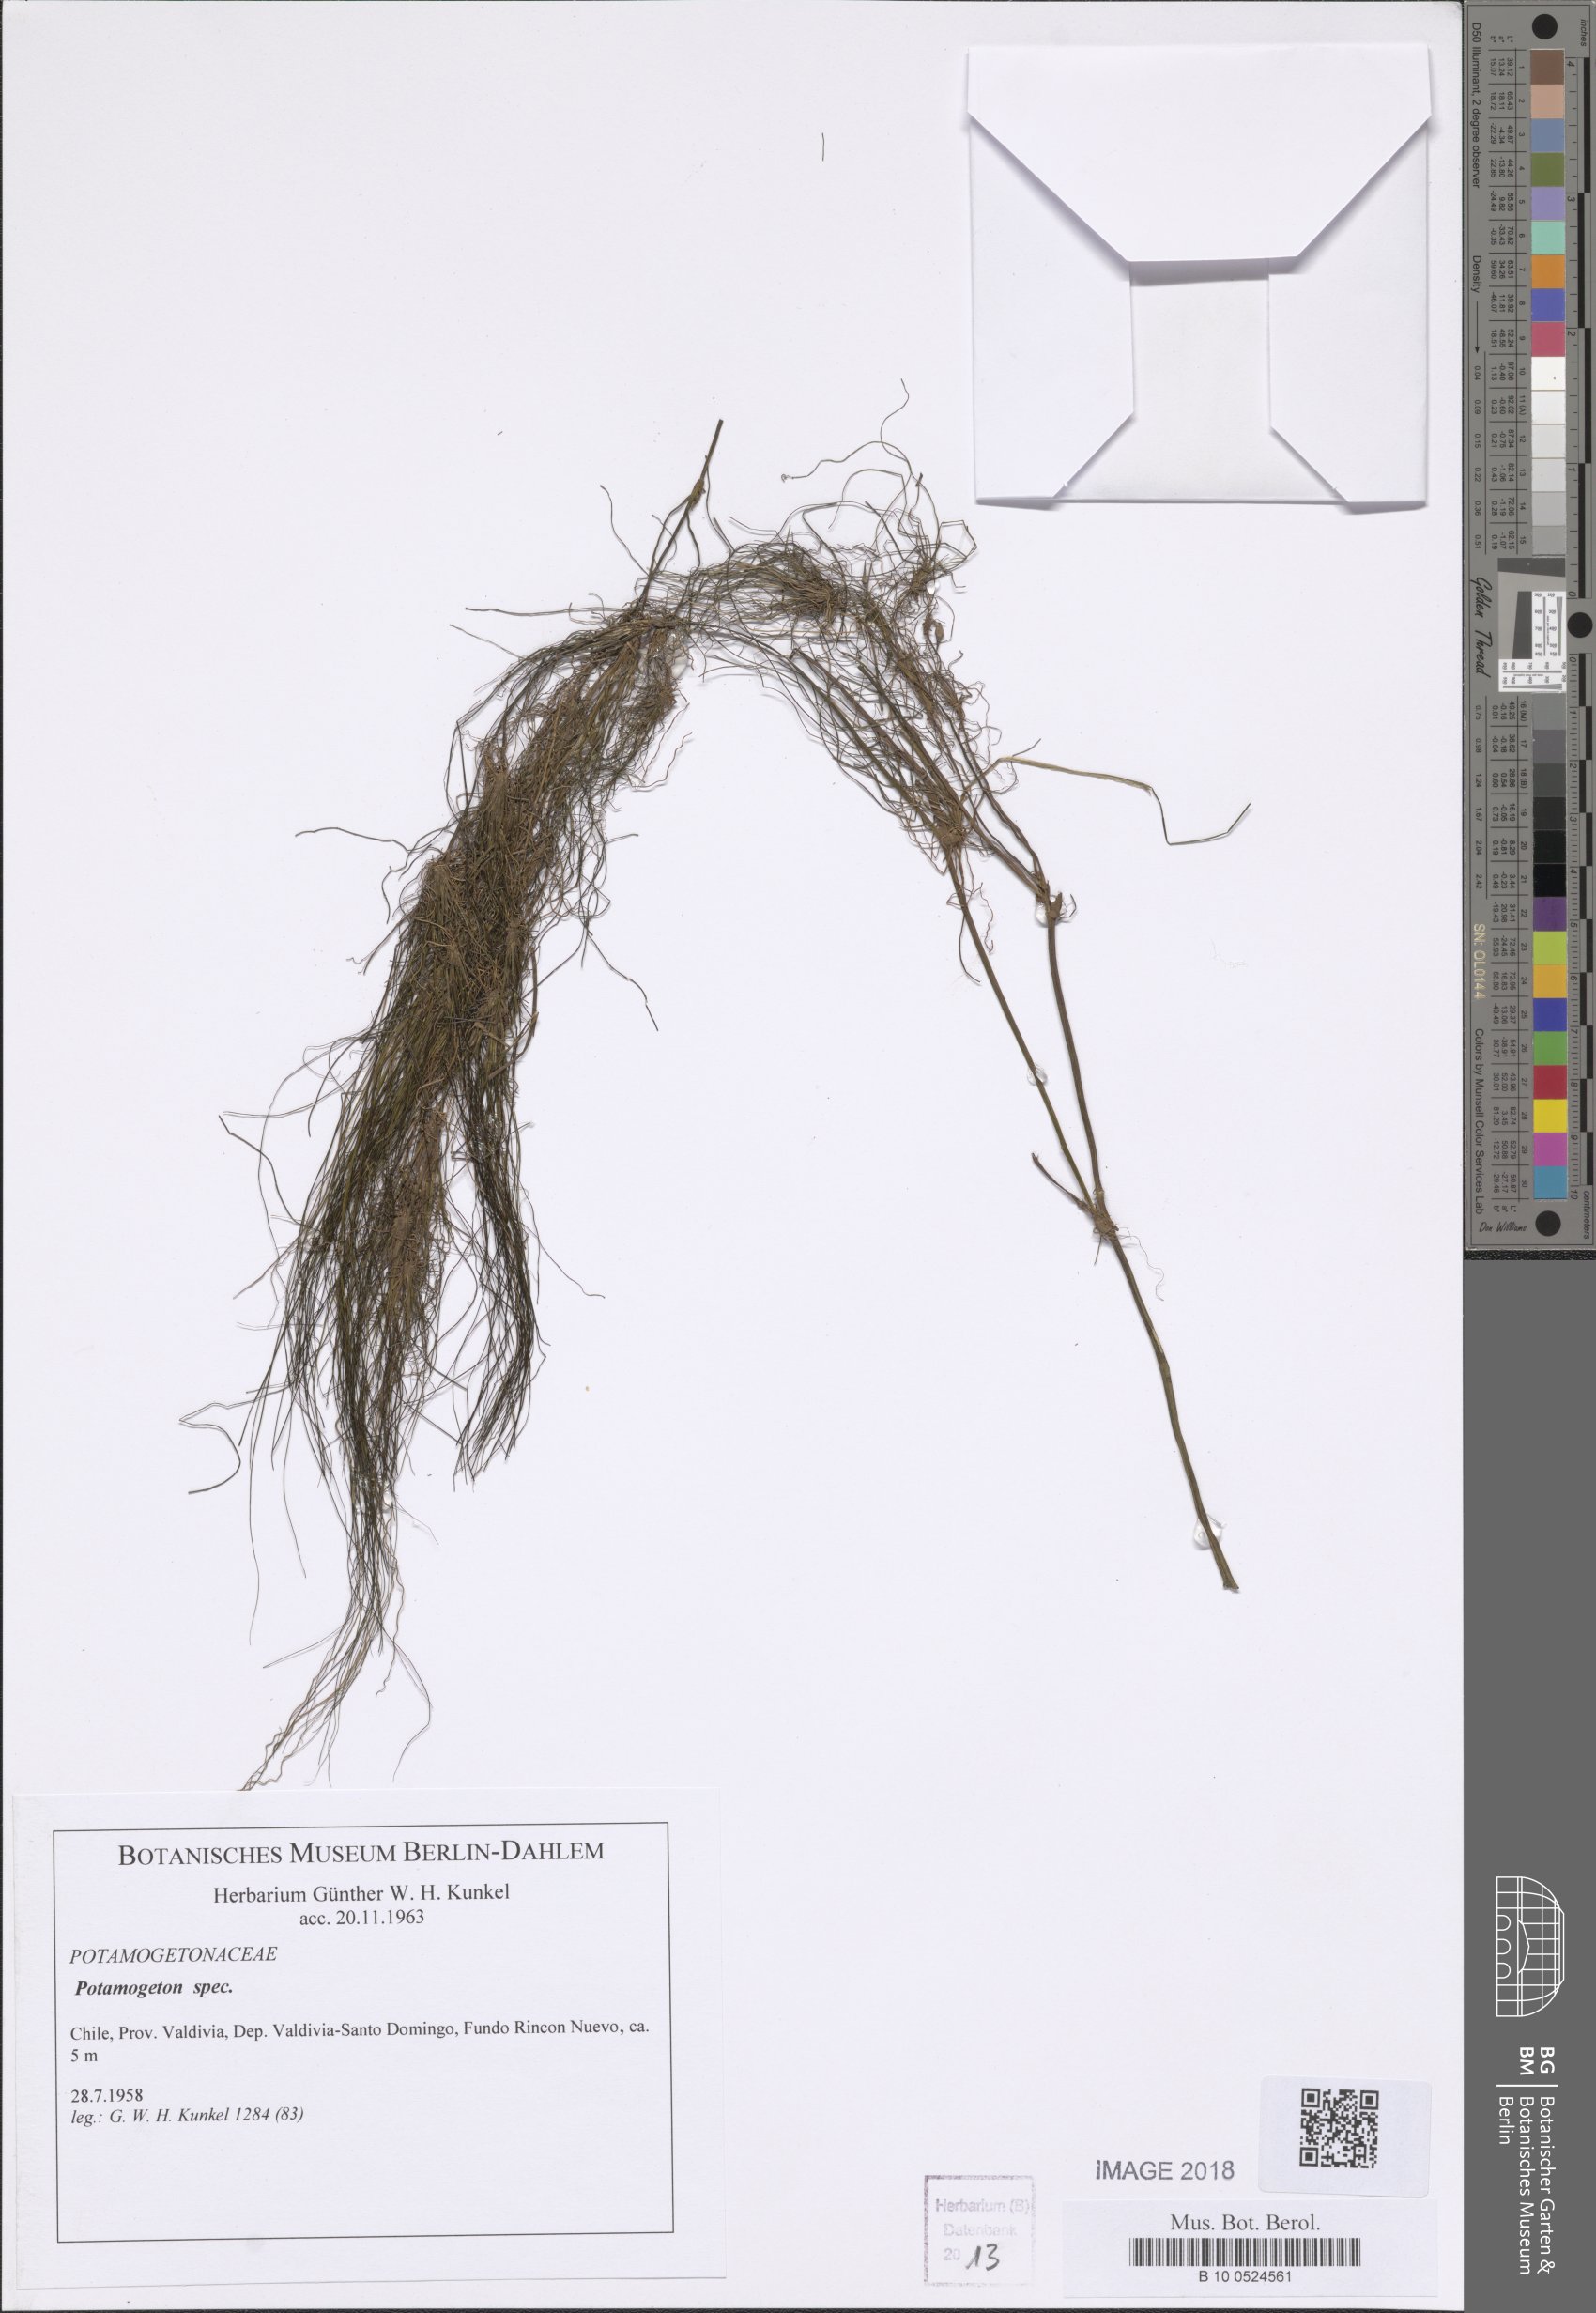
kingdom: Plantae
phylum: Tracheophyta
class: Liliopsida
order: Alismatales
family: Potamogetonaceae
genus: Potamogeton
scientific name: Potamogeton
